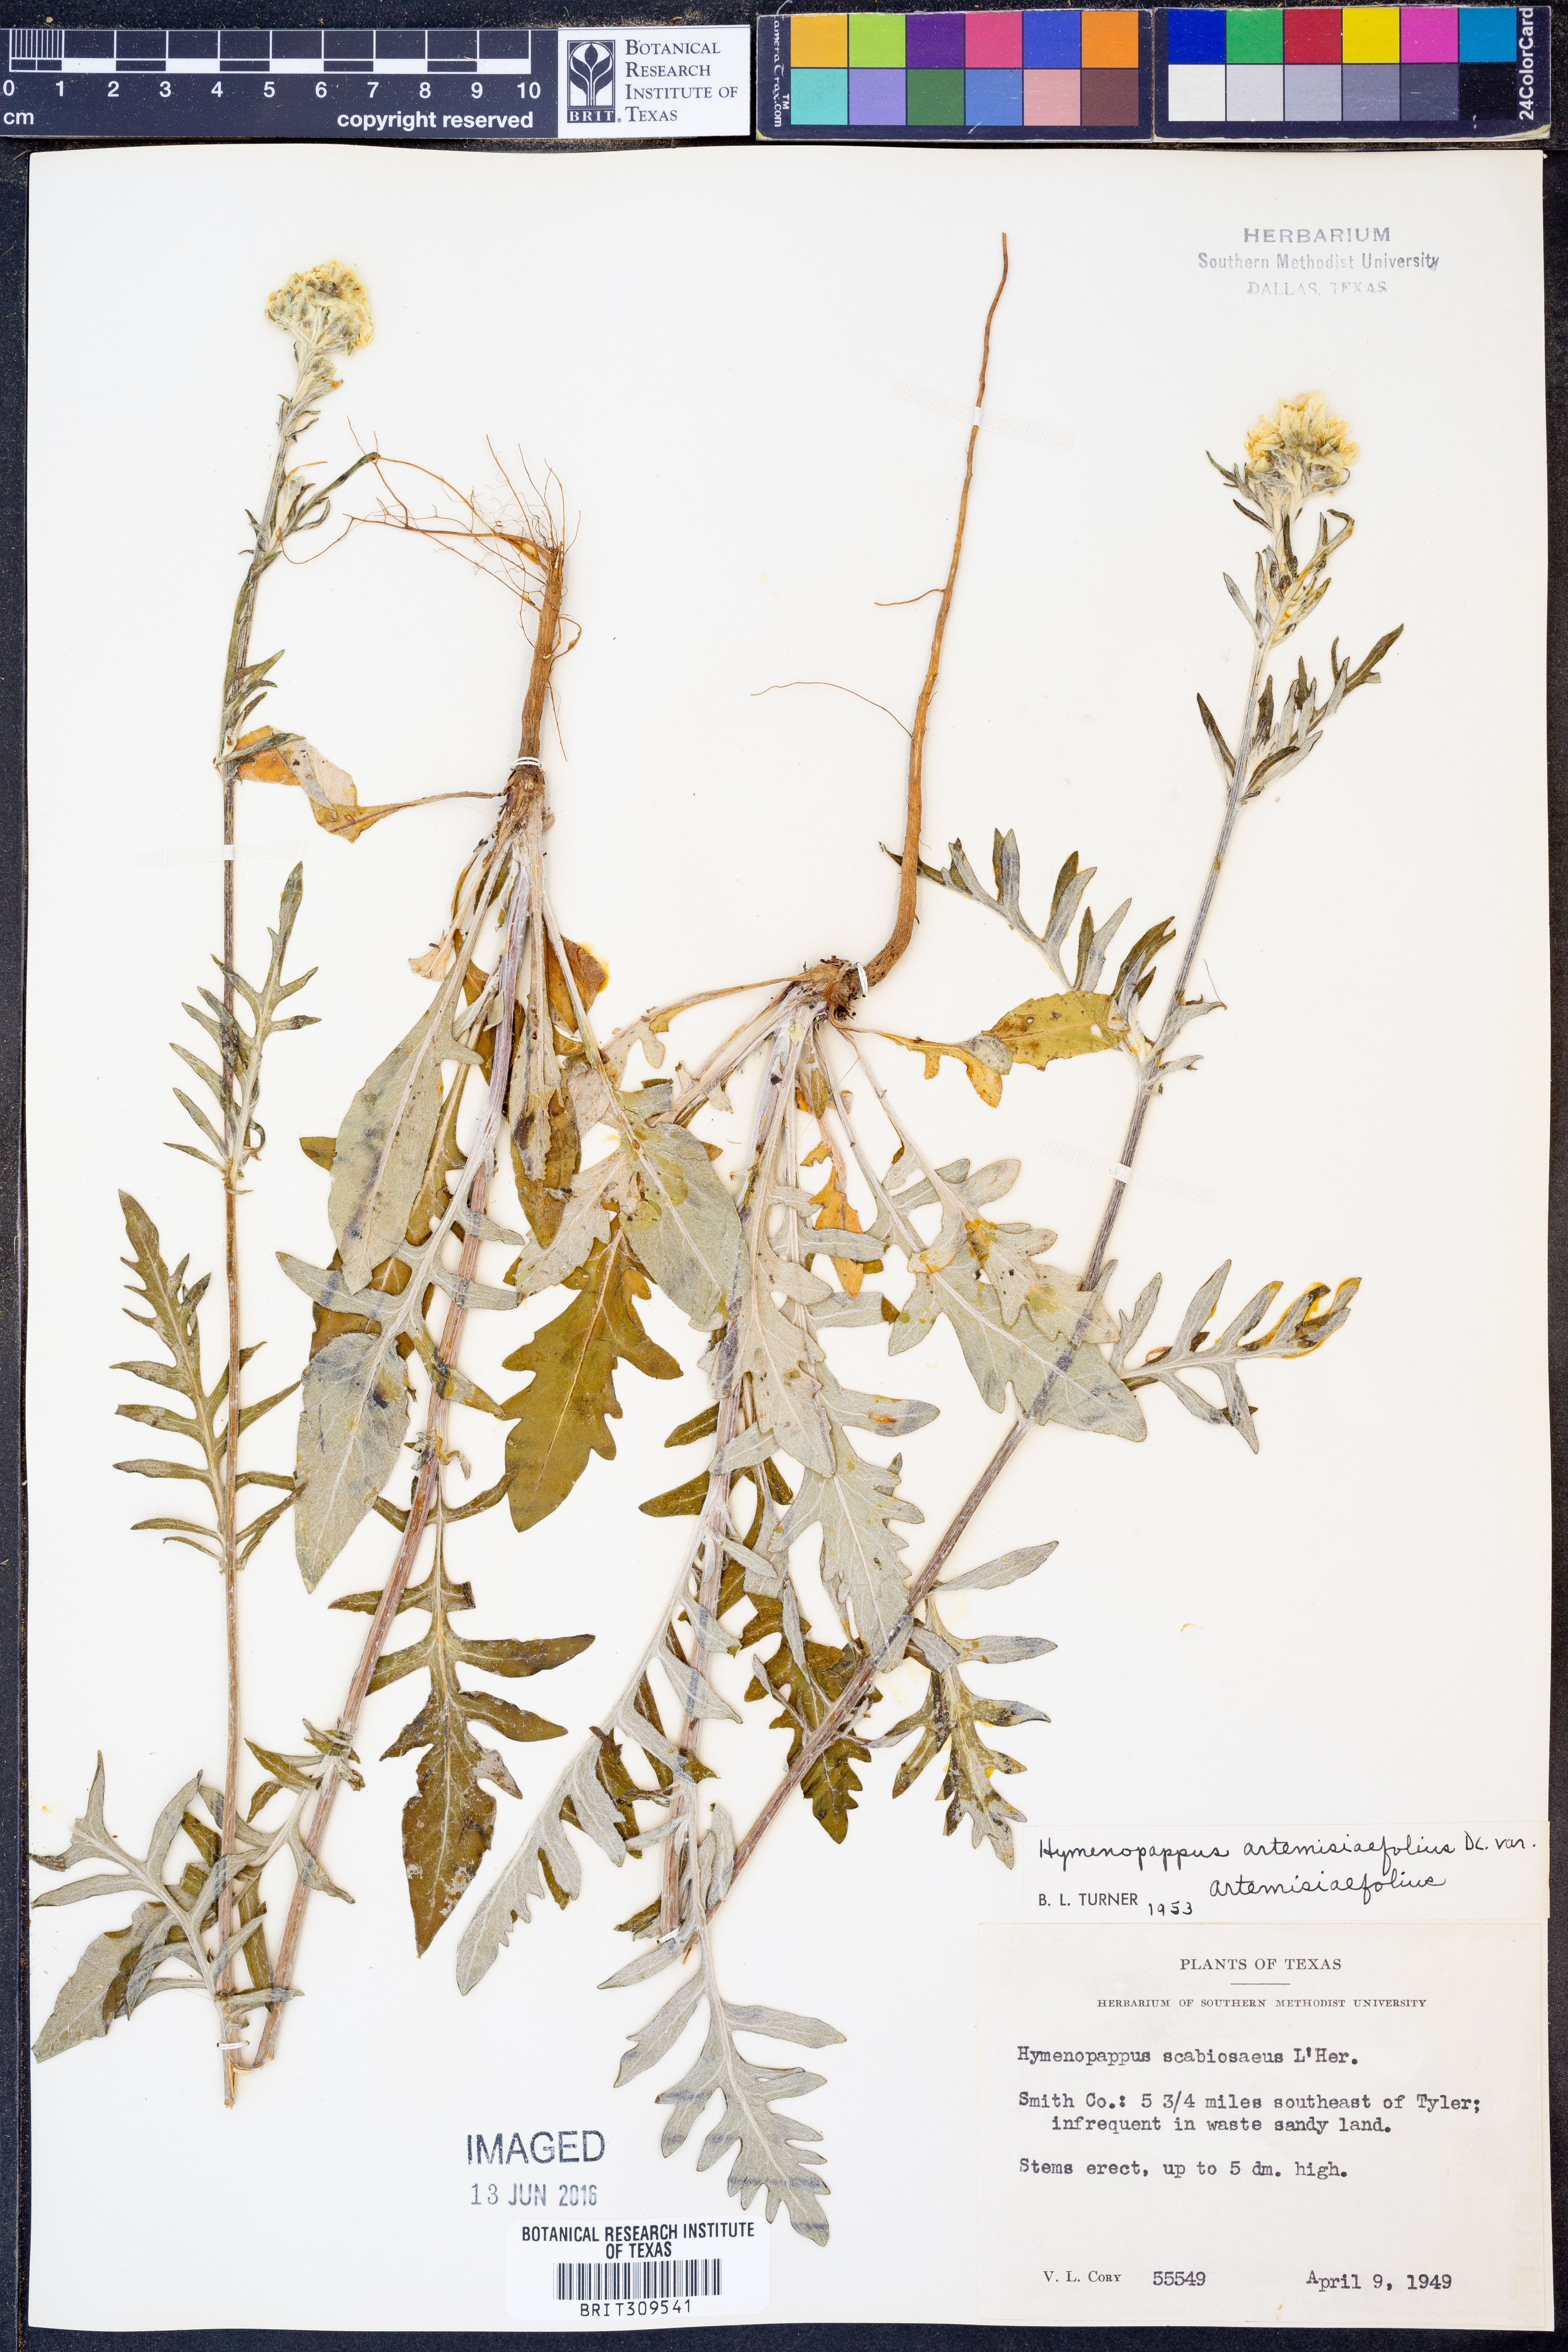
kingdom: Plantae
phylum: Tracheophyta
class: Magnoliopsida
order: Asterales
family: Asteraceae
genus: Hymenopappus
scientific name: Hymenopappus artemisiifolius
